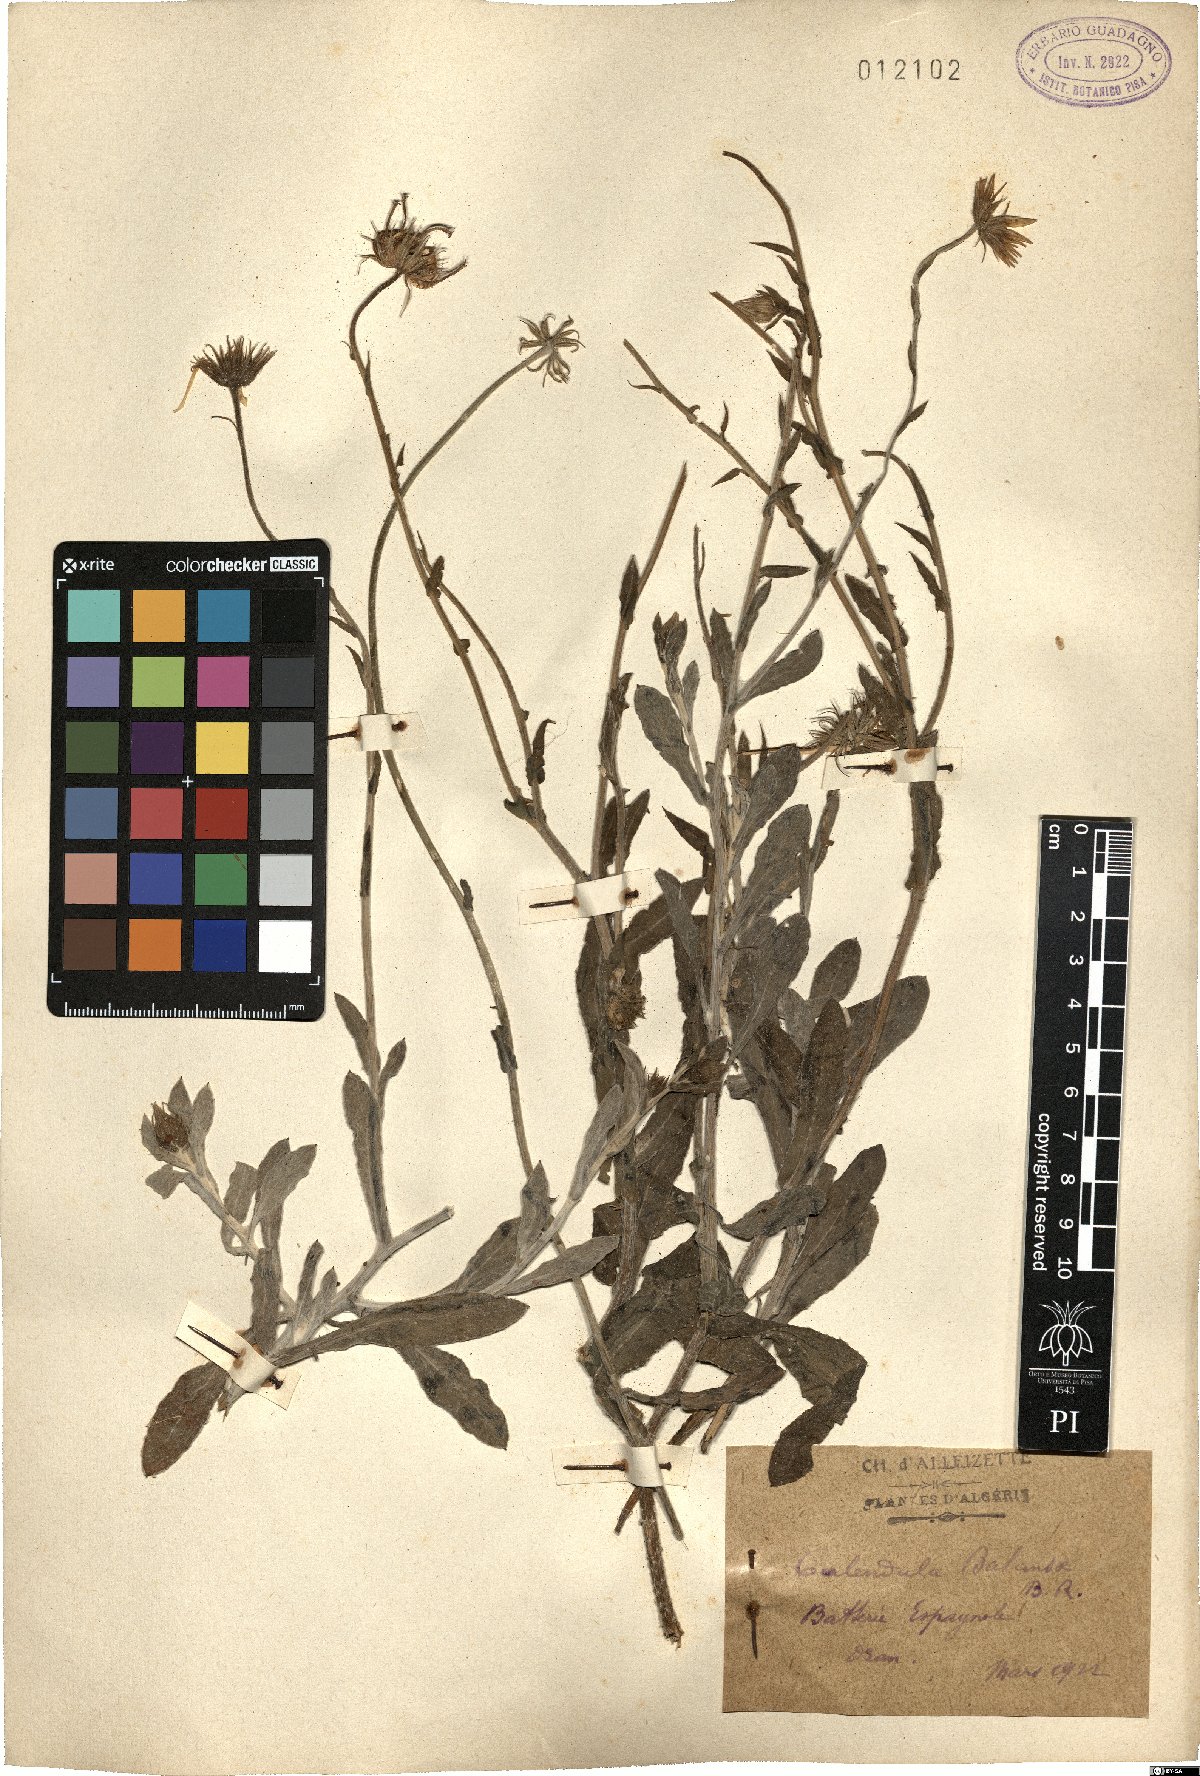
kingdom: Plantae
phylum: Tracheophyta
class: Magnoliopsida
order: Asterales
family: Asteraceae
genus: Calendula
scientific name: Calendula suffruticosa
